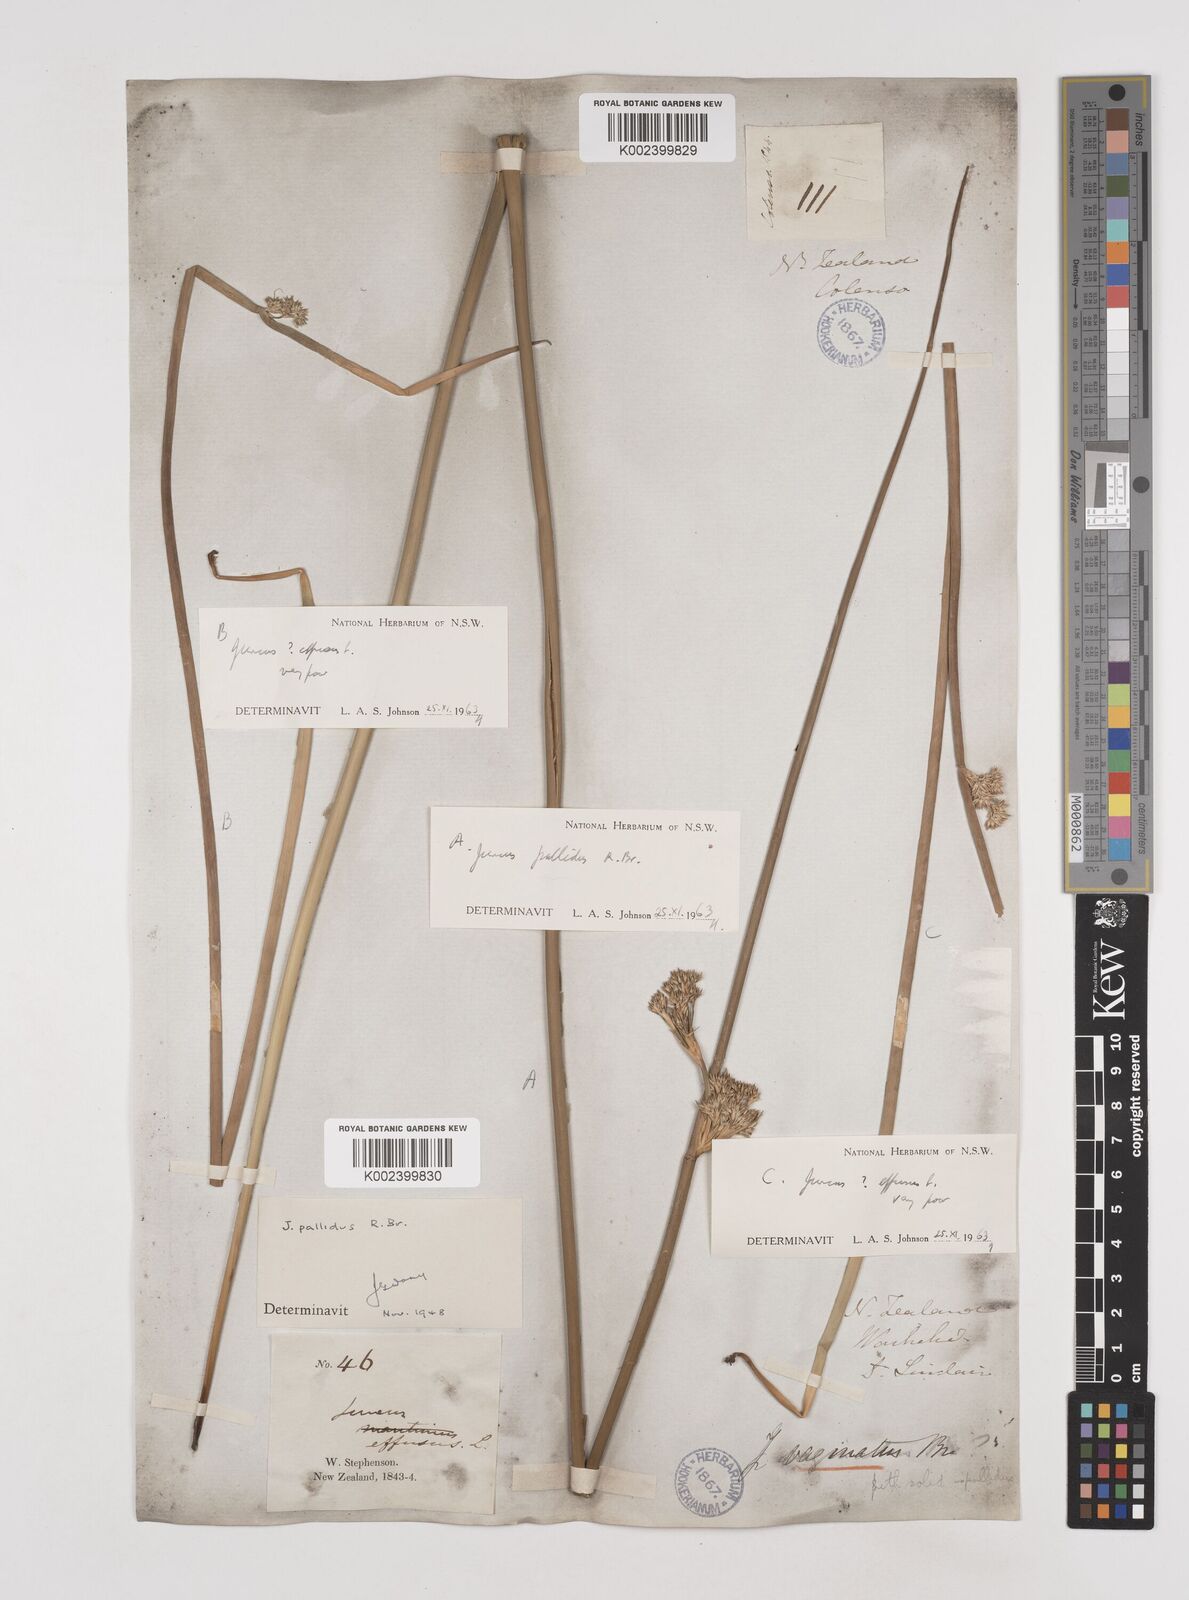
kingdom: Plantae
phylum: Tracheophyta
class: Liliopsida
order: Poales
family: Juncaceae
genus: Juncus
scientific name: Juncus pallidus
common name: Great soft-rush
